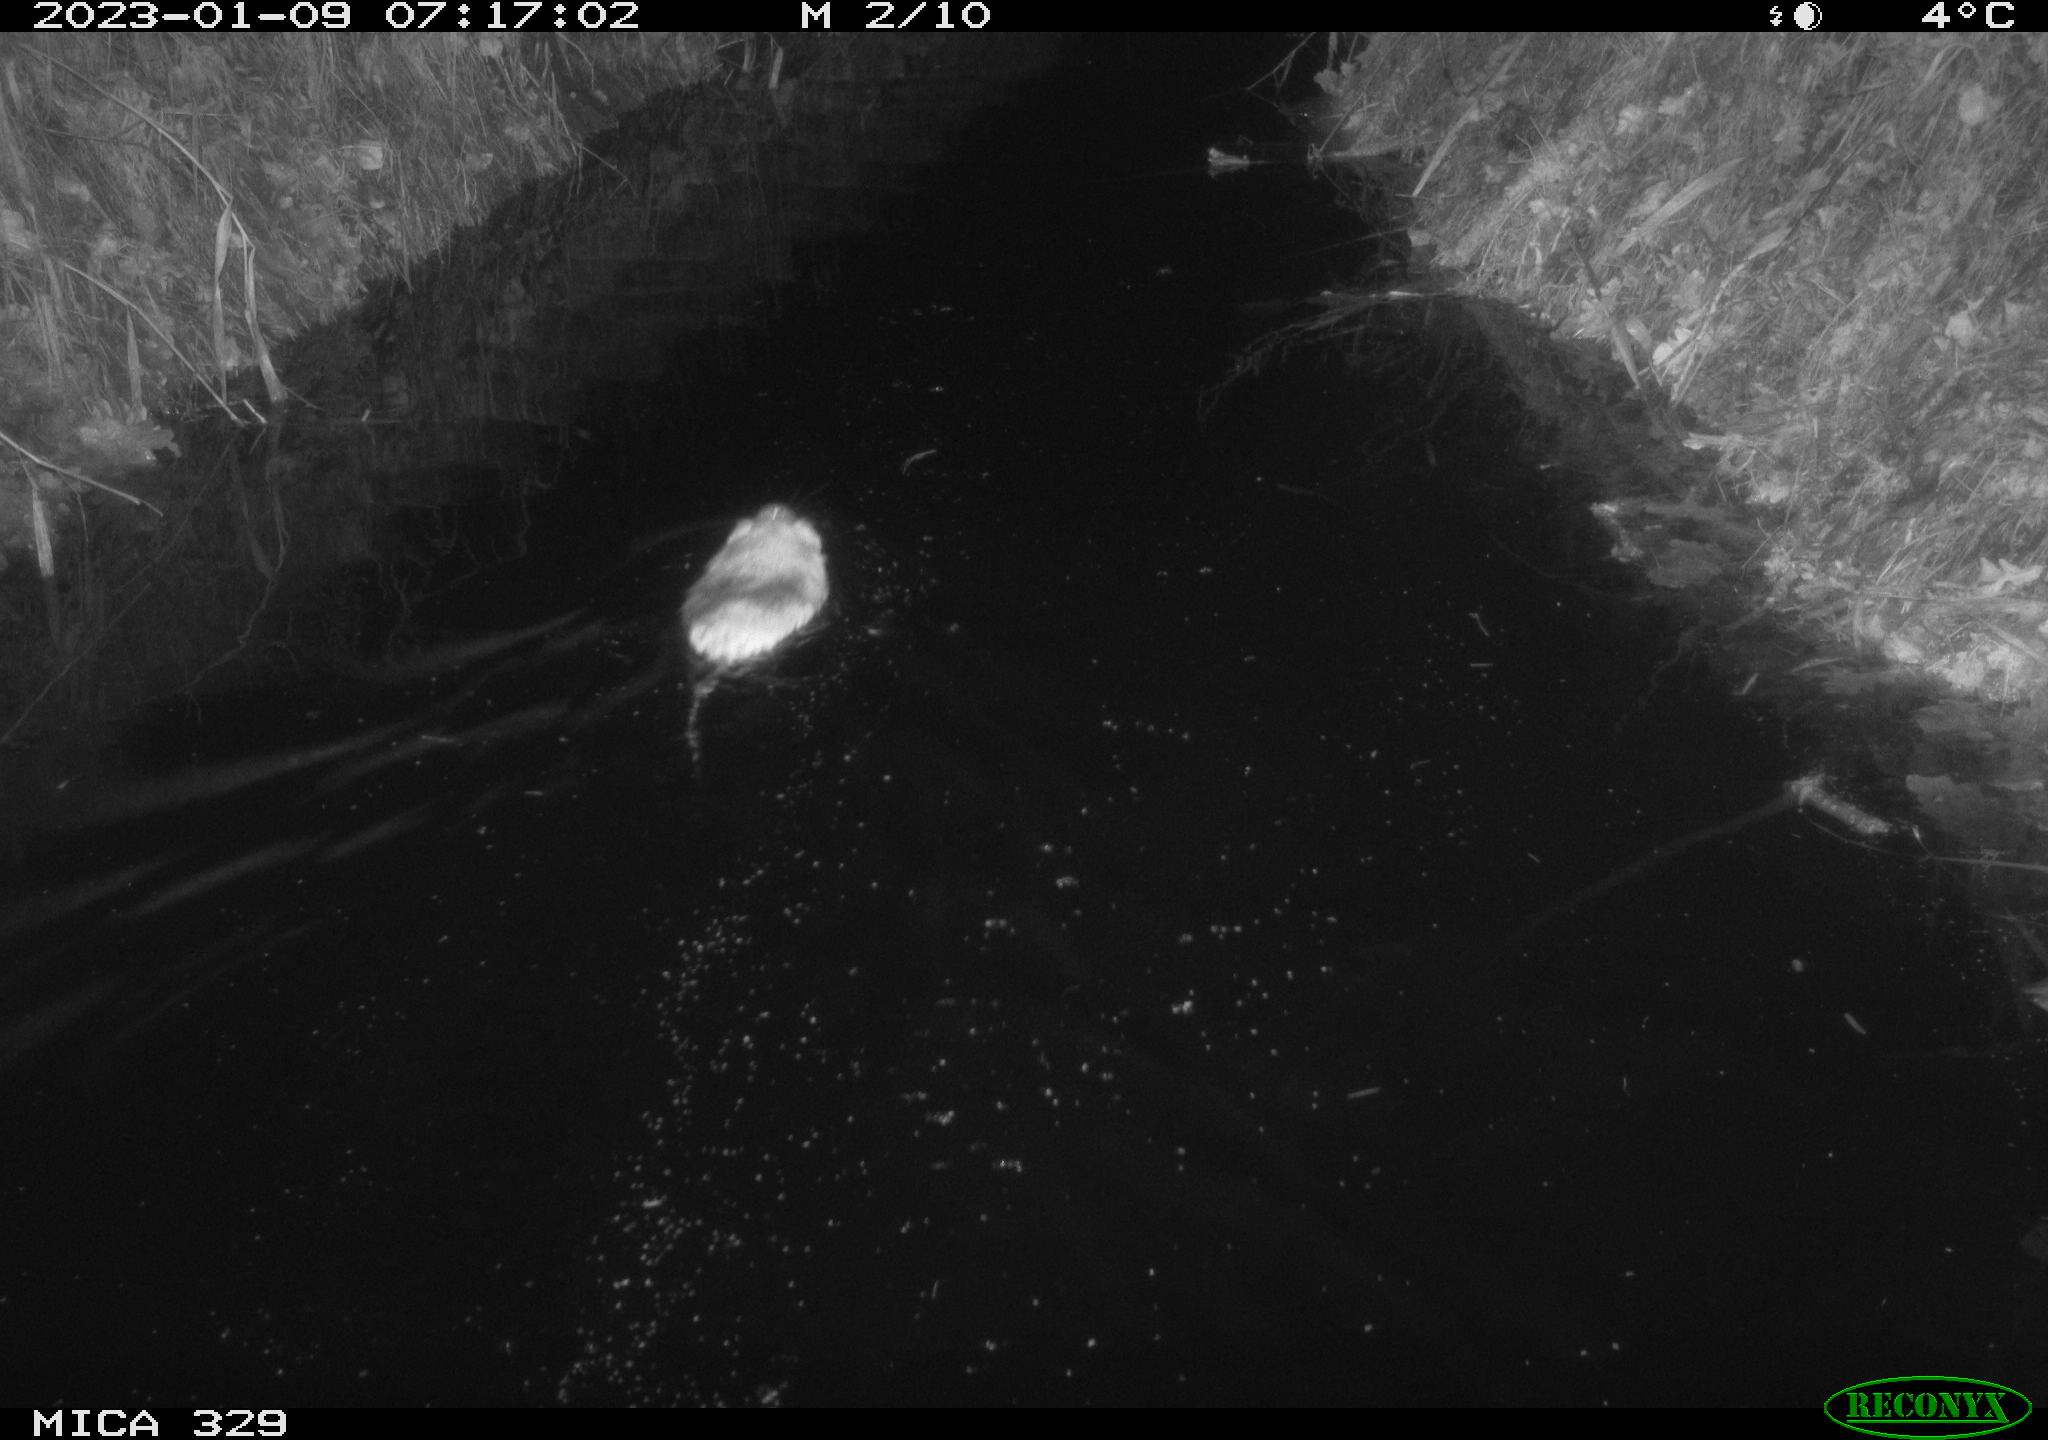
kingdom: Animalia
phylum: Chordata
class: Mammalia
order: Rodentia
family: Cricetidae
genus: Ondatra
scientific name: Ondatra zibethicus
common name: Muskrat
